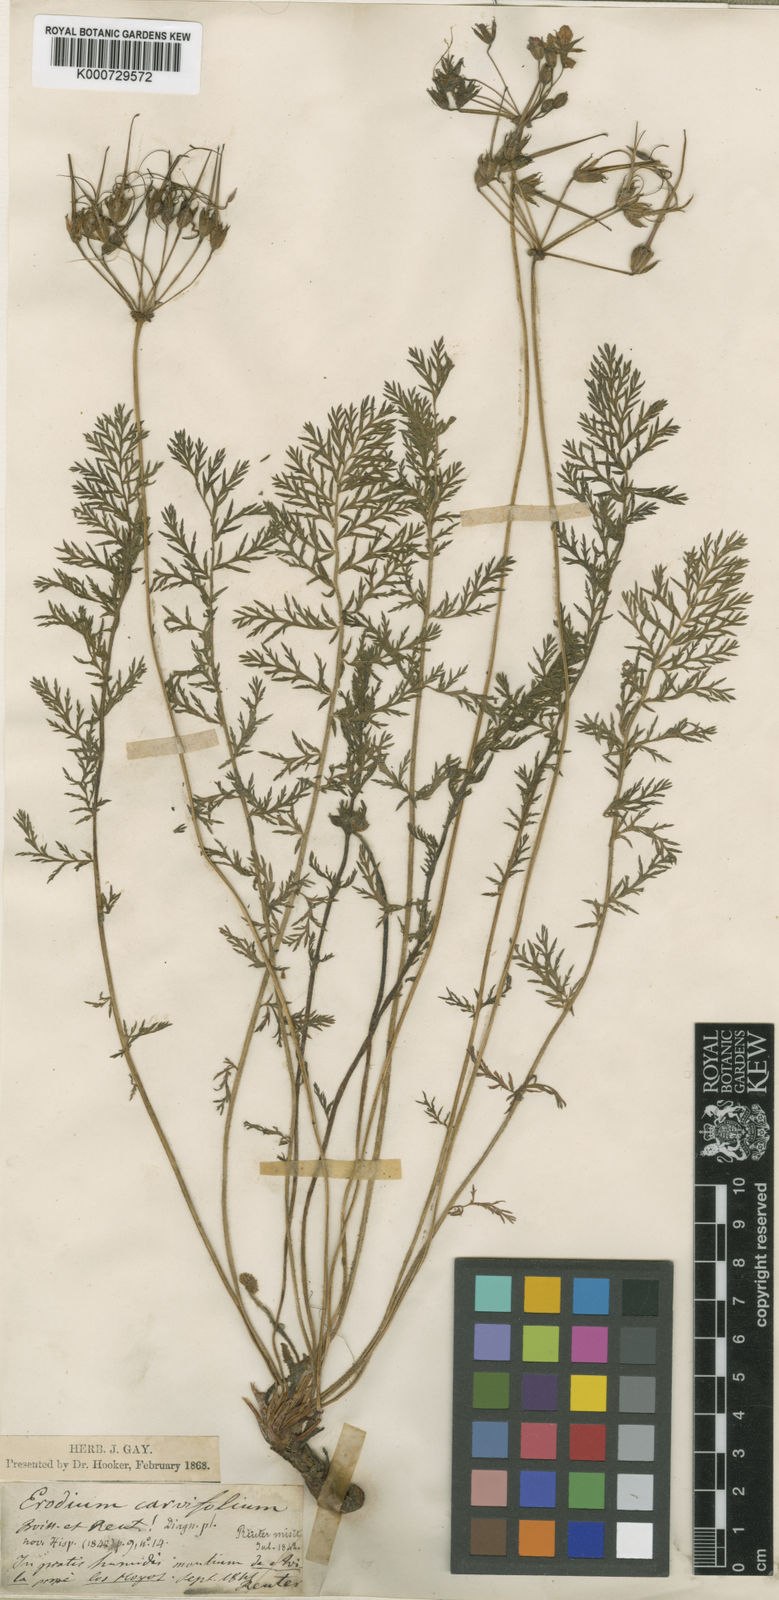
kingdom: Plantae
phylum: Tracheophyta
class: Magnoliopsida
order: Geraniales
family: Geraniaceae
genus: Erodium
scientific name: Erodium carvifolium
